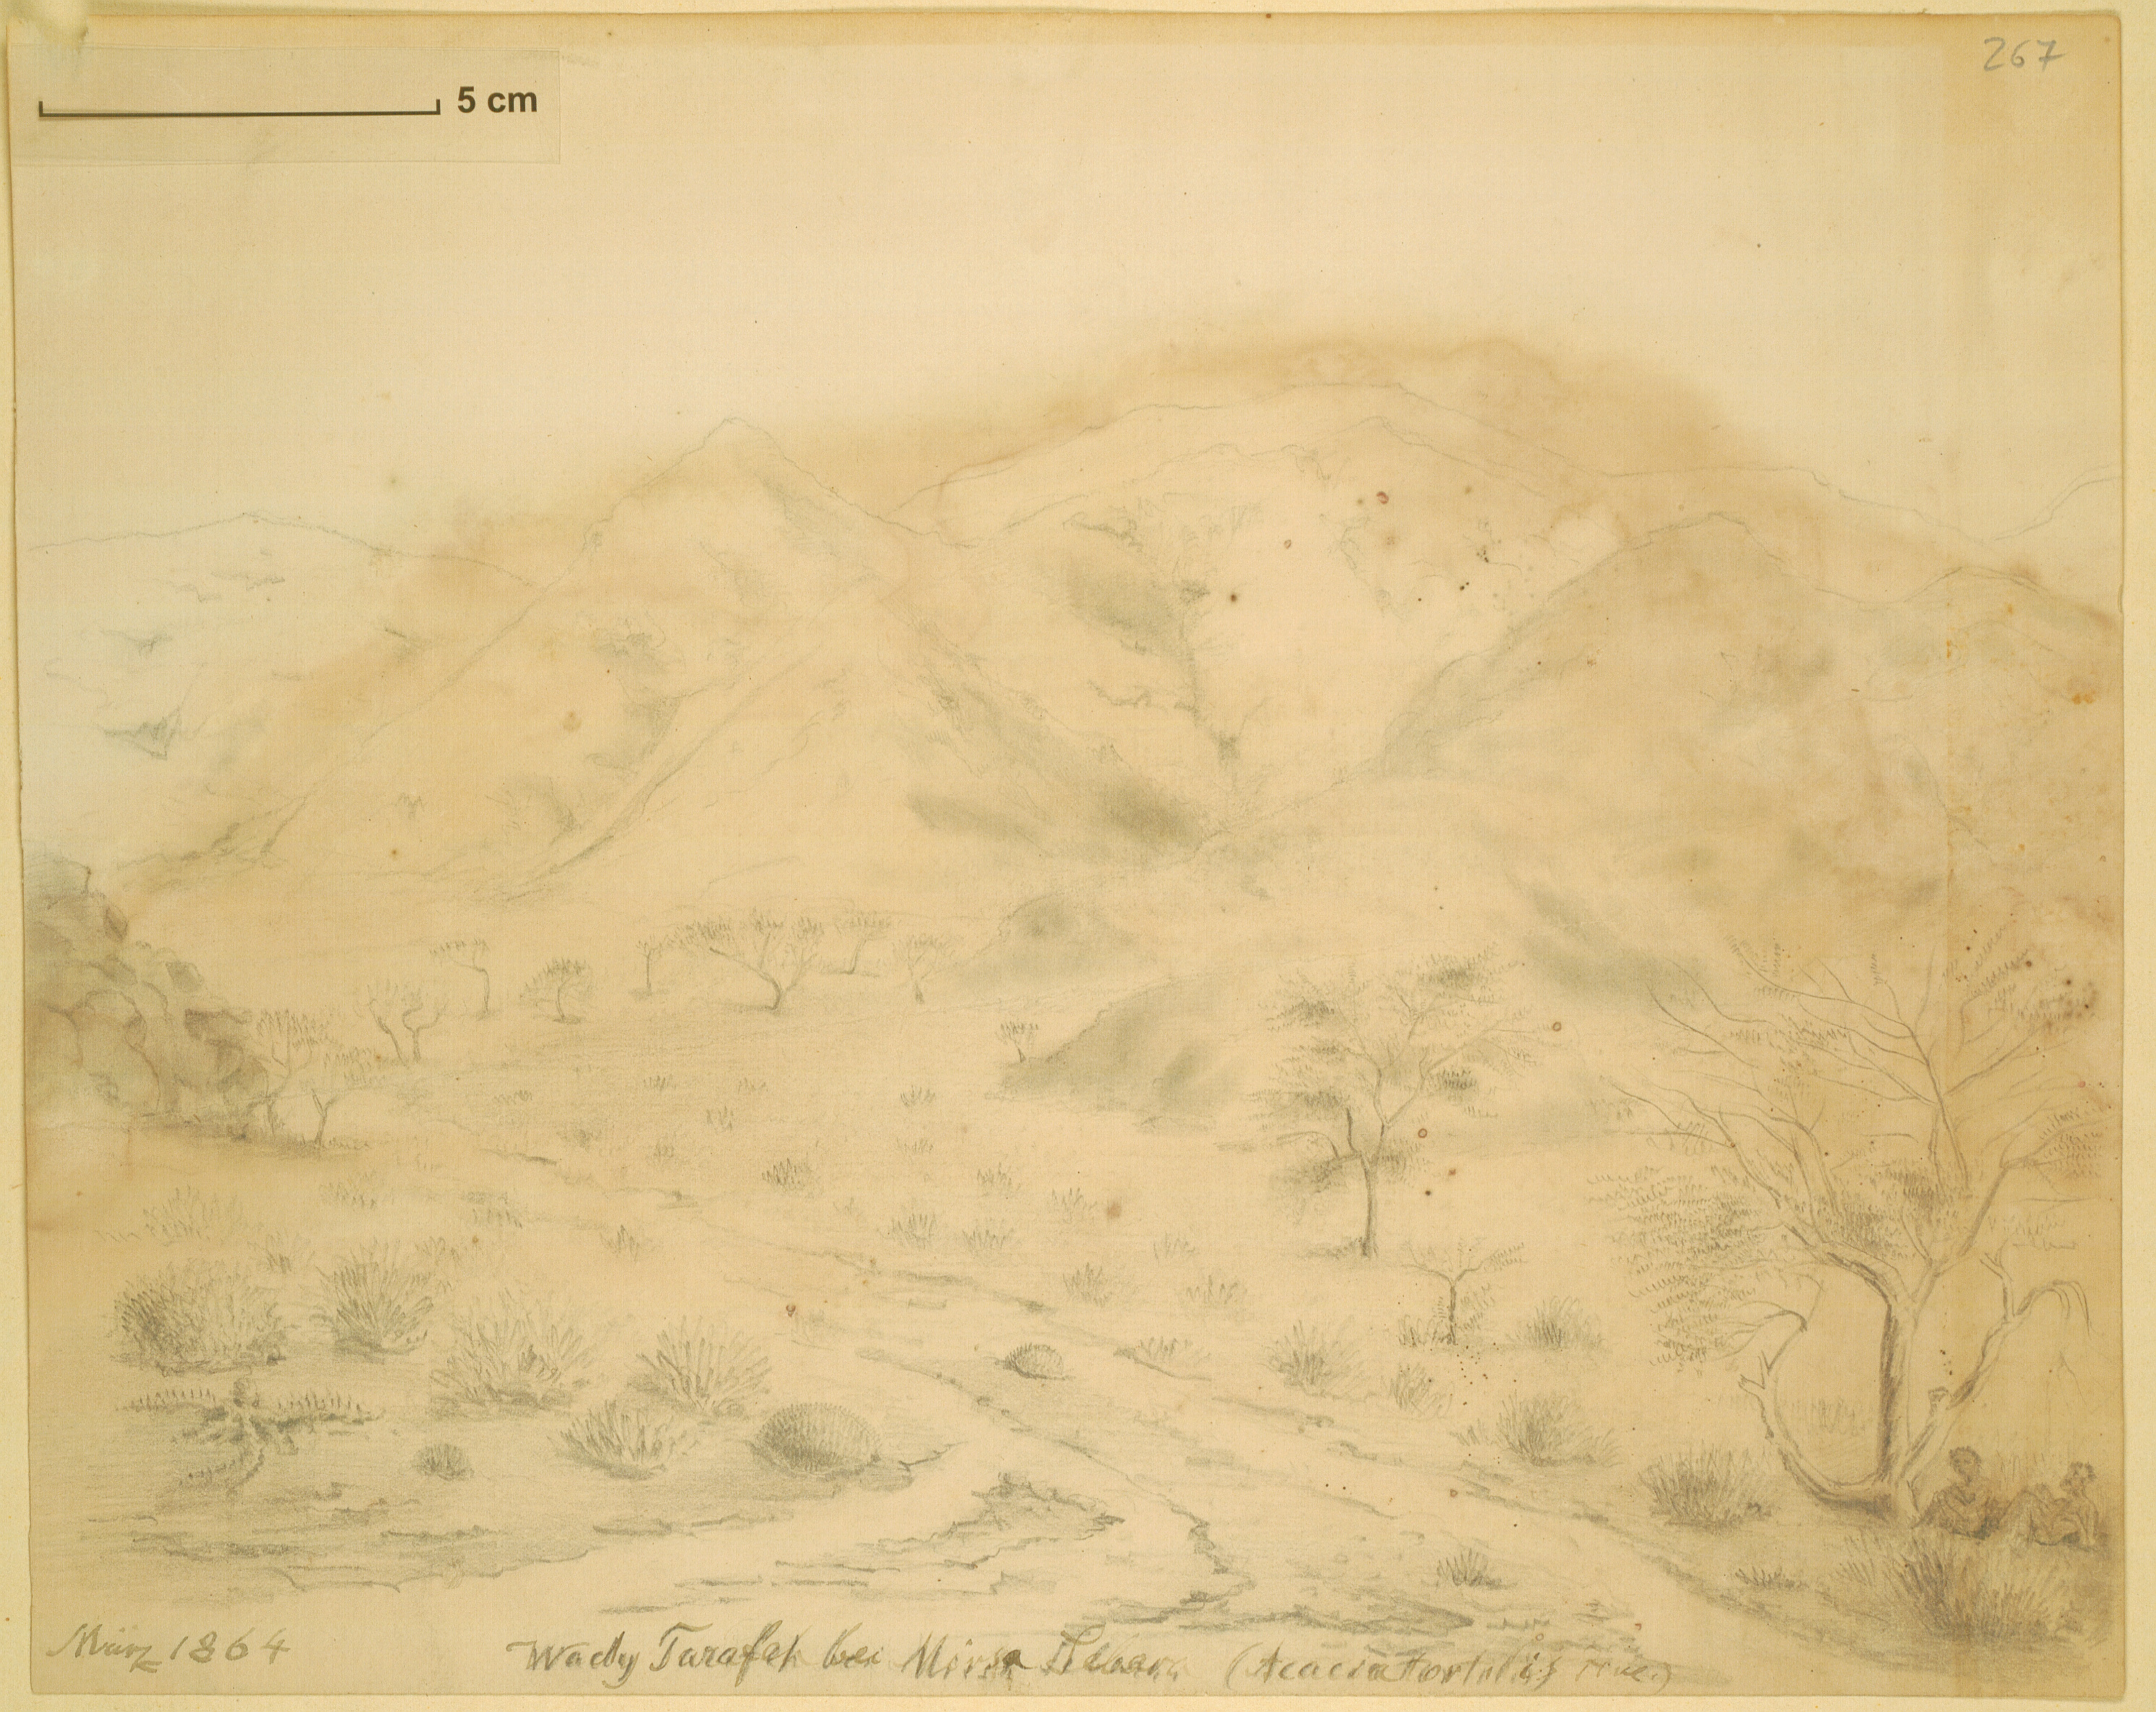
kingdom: Plantae
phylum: Tracheophyta
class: Magnoliopsida
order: Fabales
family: Fabaceae
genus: Vachellia
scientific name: Vachellia tortilis
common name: Umbrella thorn acacia
